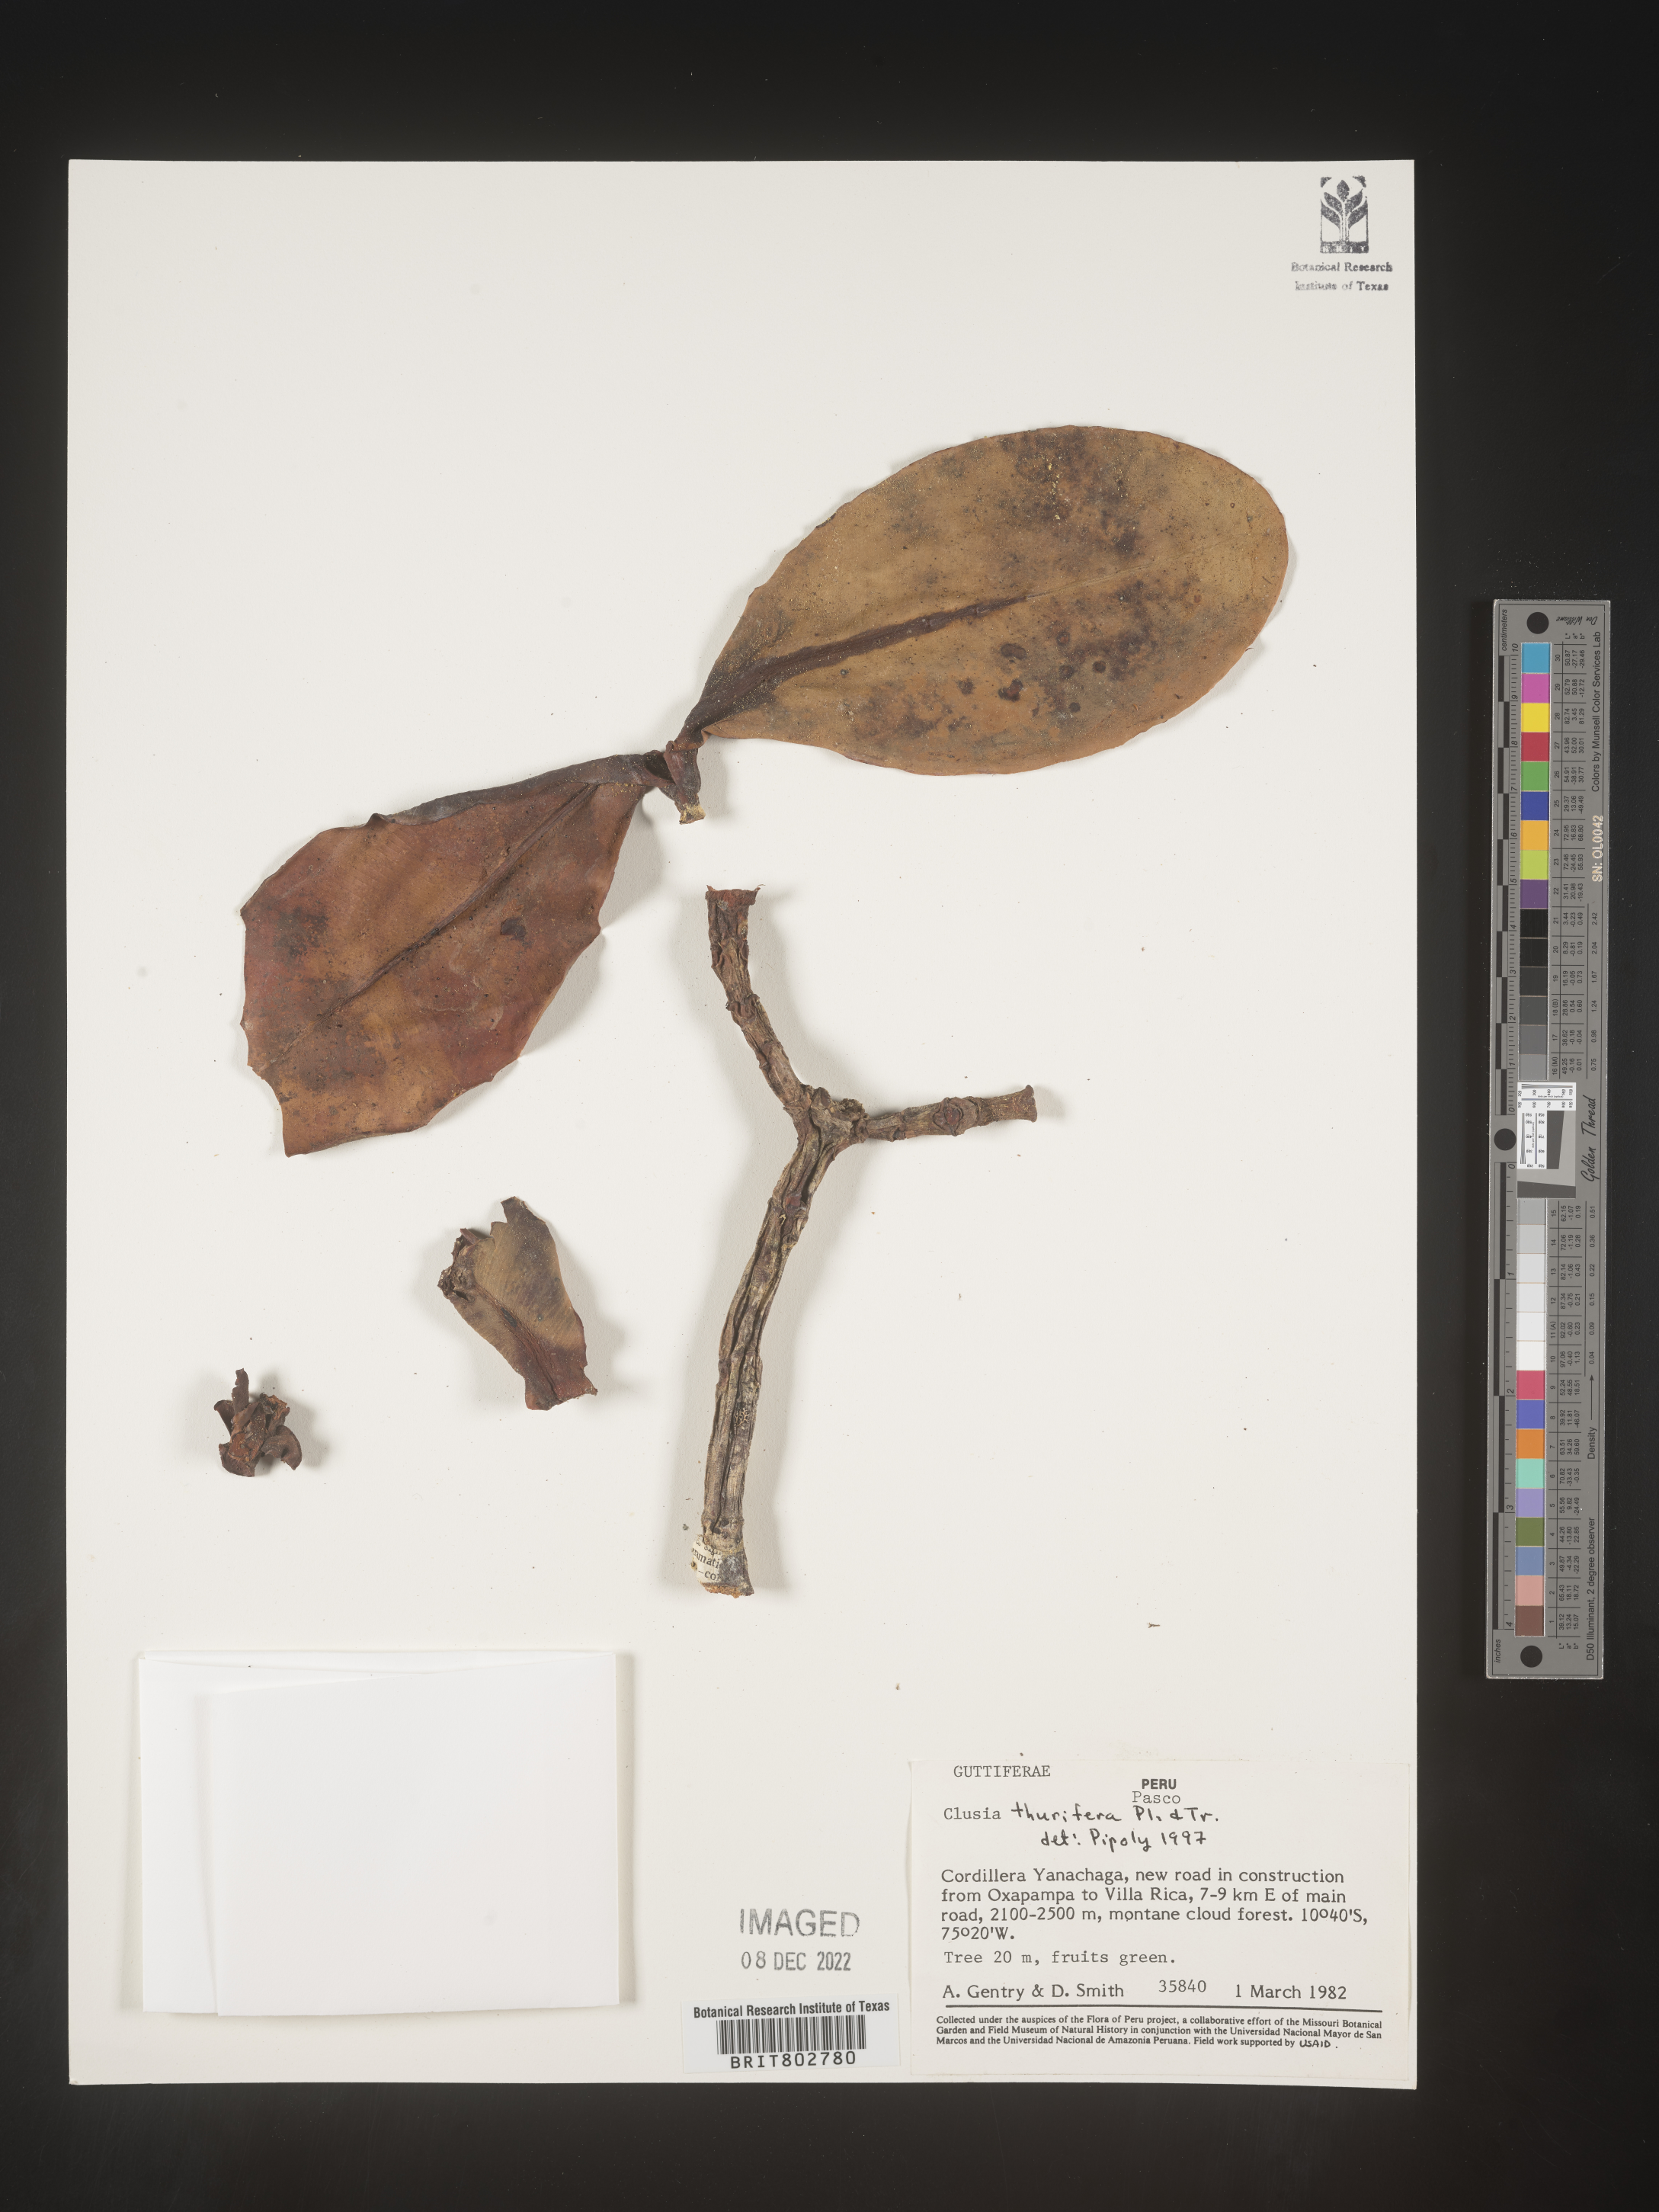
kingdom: Plantae
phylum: Tracheophyta
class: Magnoliopsida
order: Malpighiales
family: Clusiaceae
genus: Clusia
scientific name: Clusia thurifera
